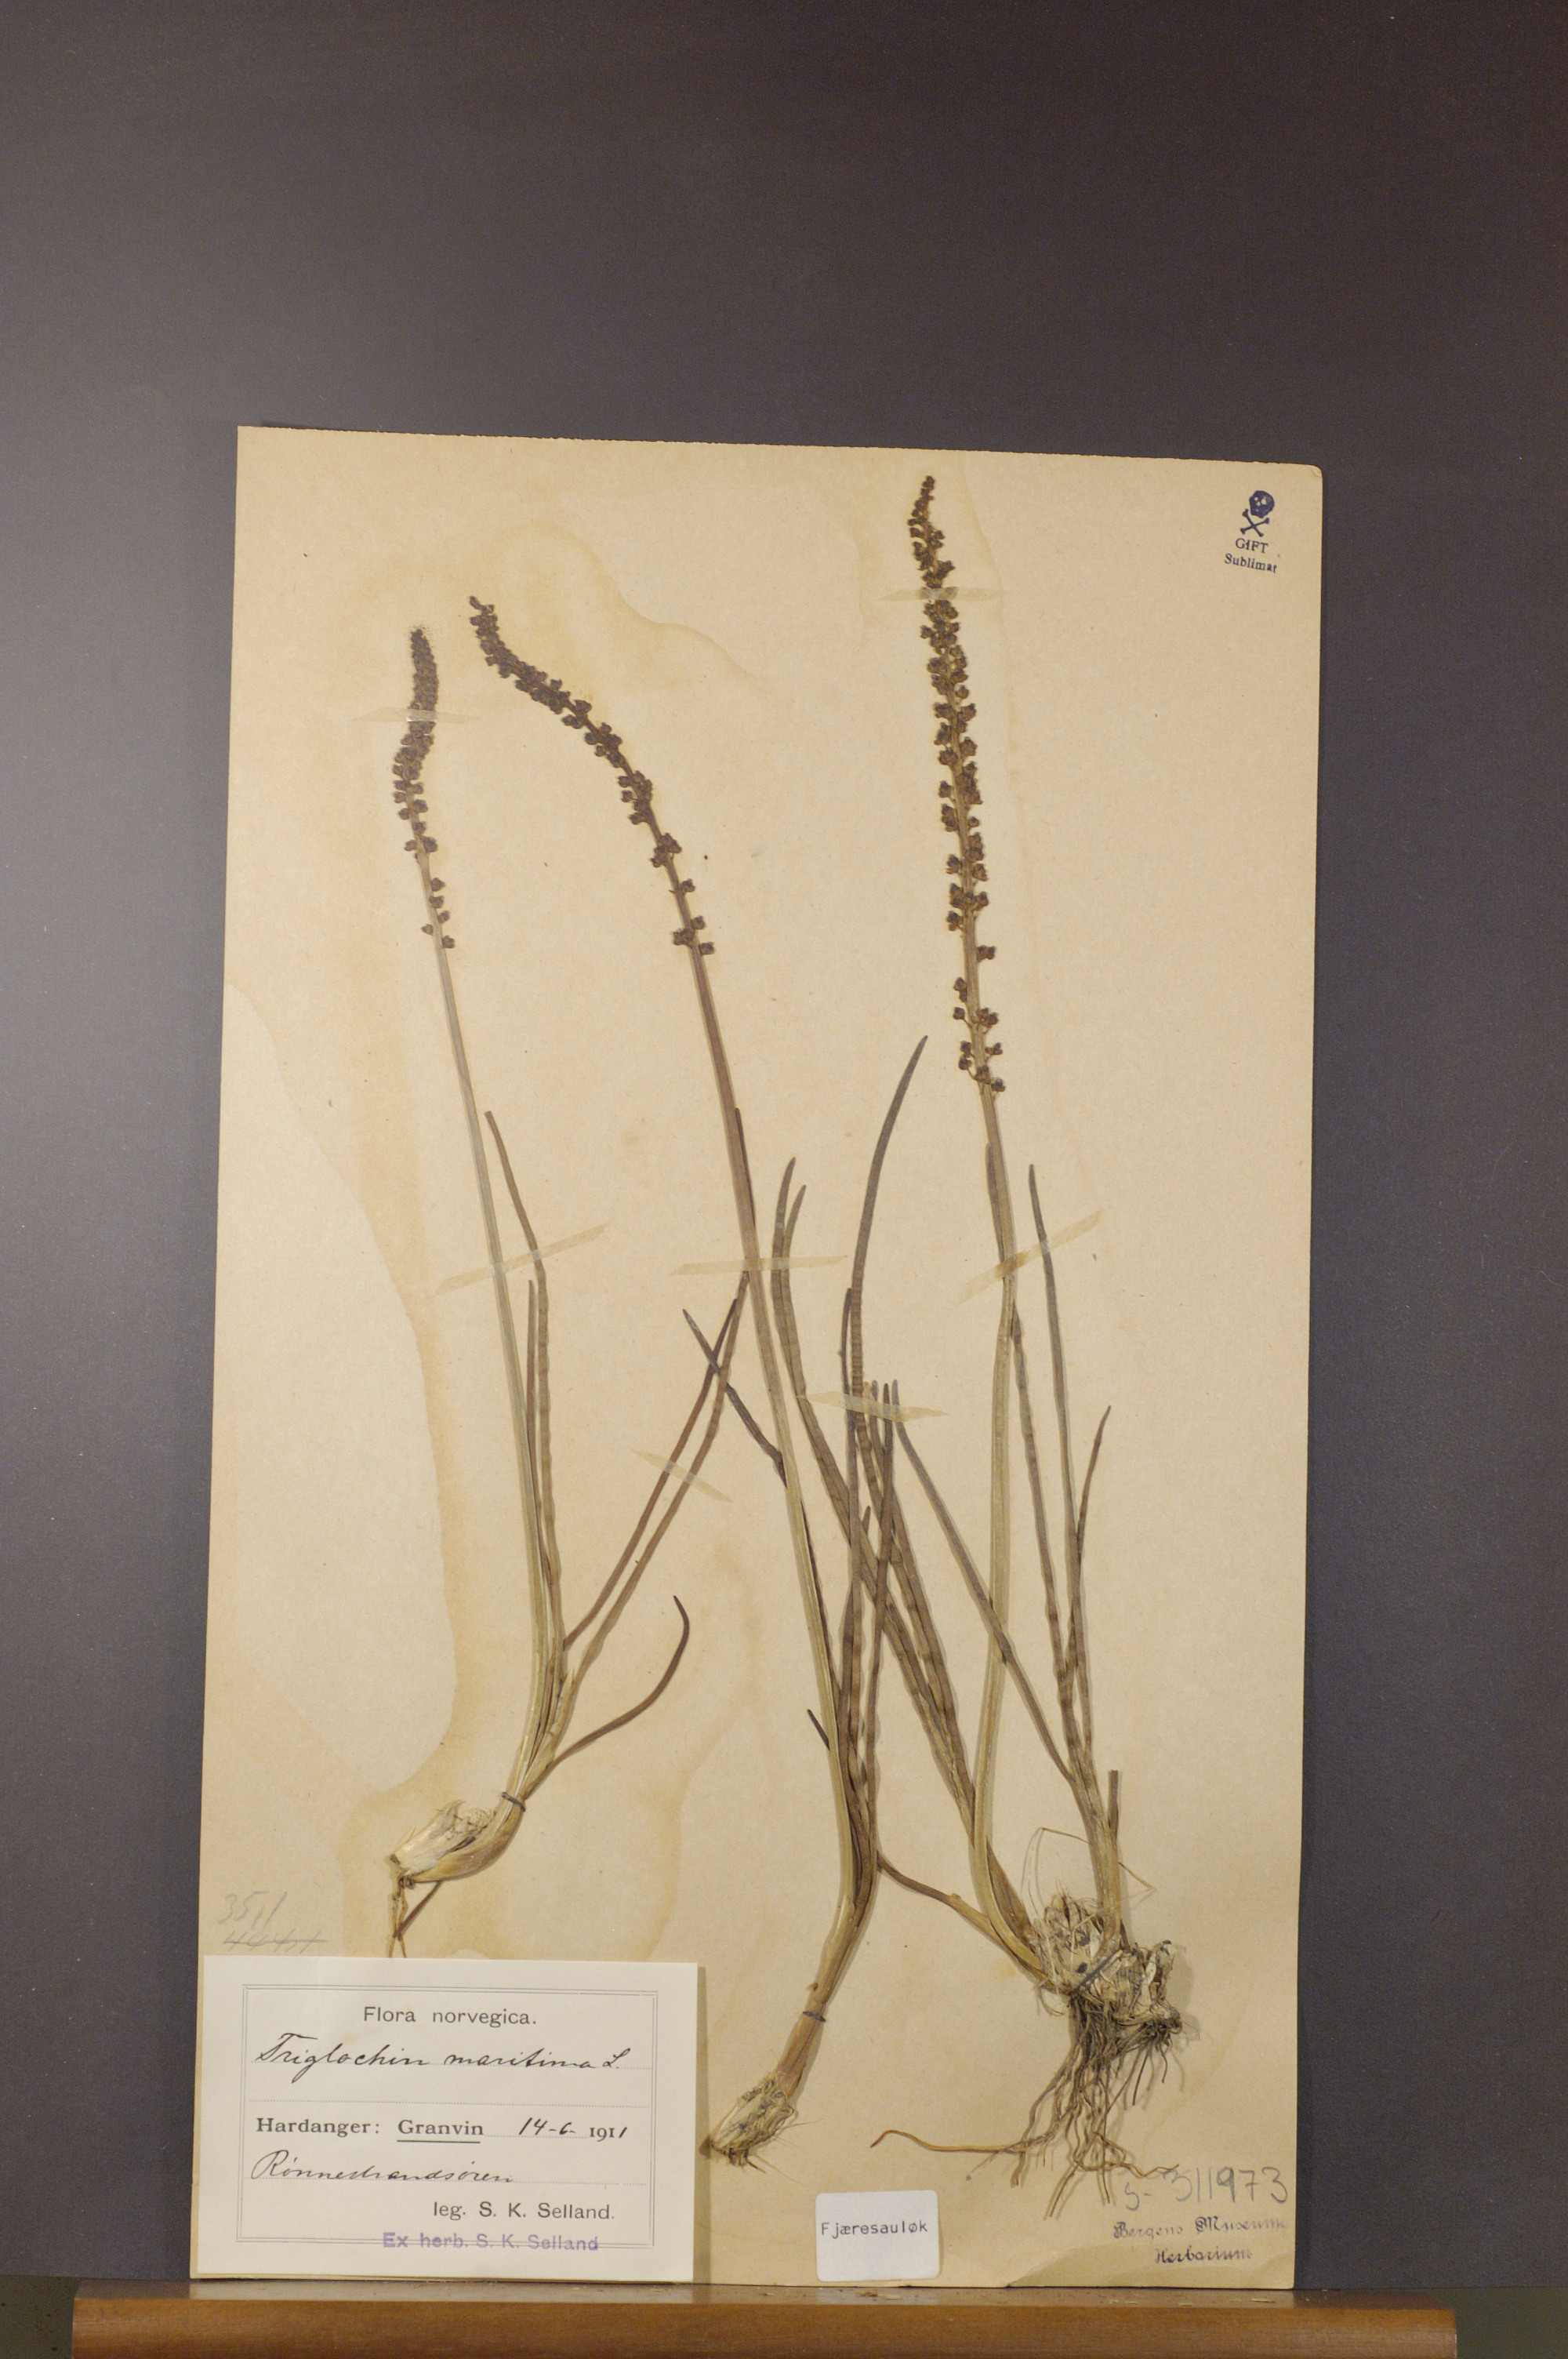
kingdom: Plantae
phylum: Tracheophyta
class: Liliopsida
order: Alismatales
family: Juncaginaceae
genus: Triglochin
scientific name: Triglochin maritima
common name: Sea arrowgrass
